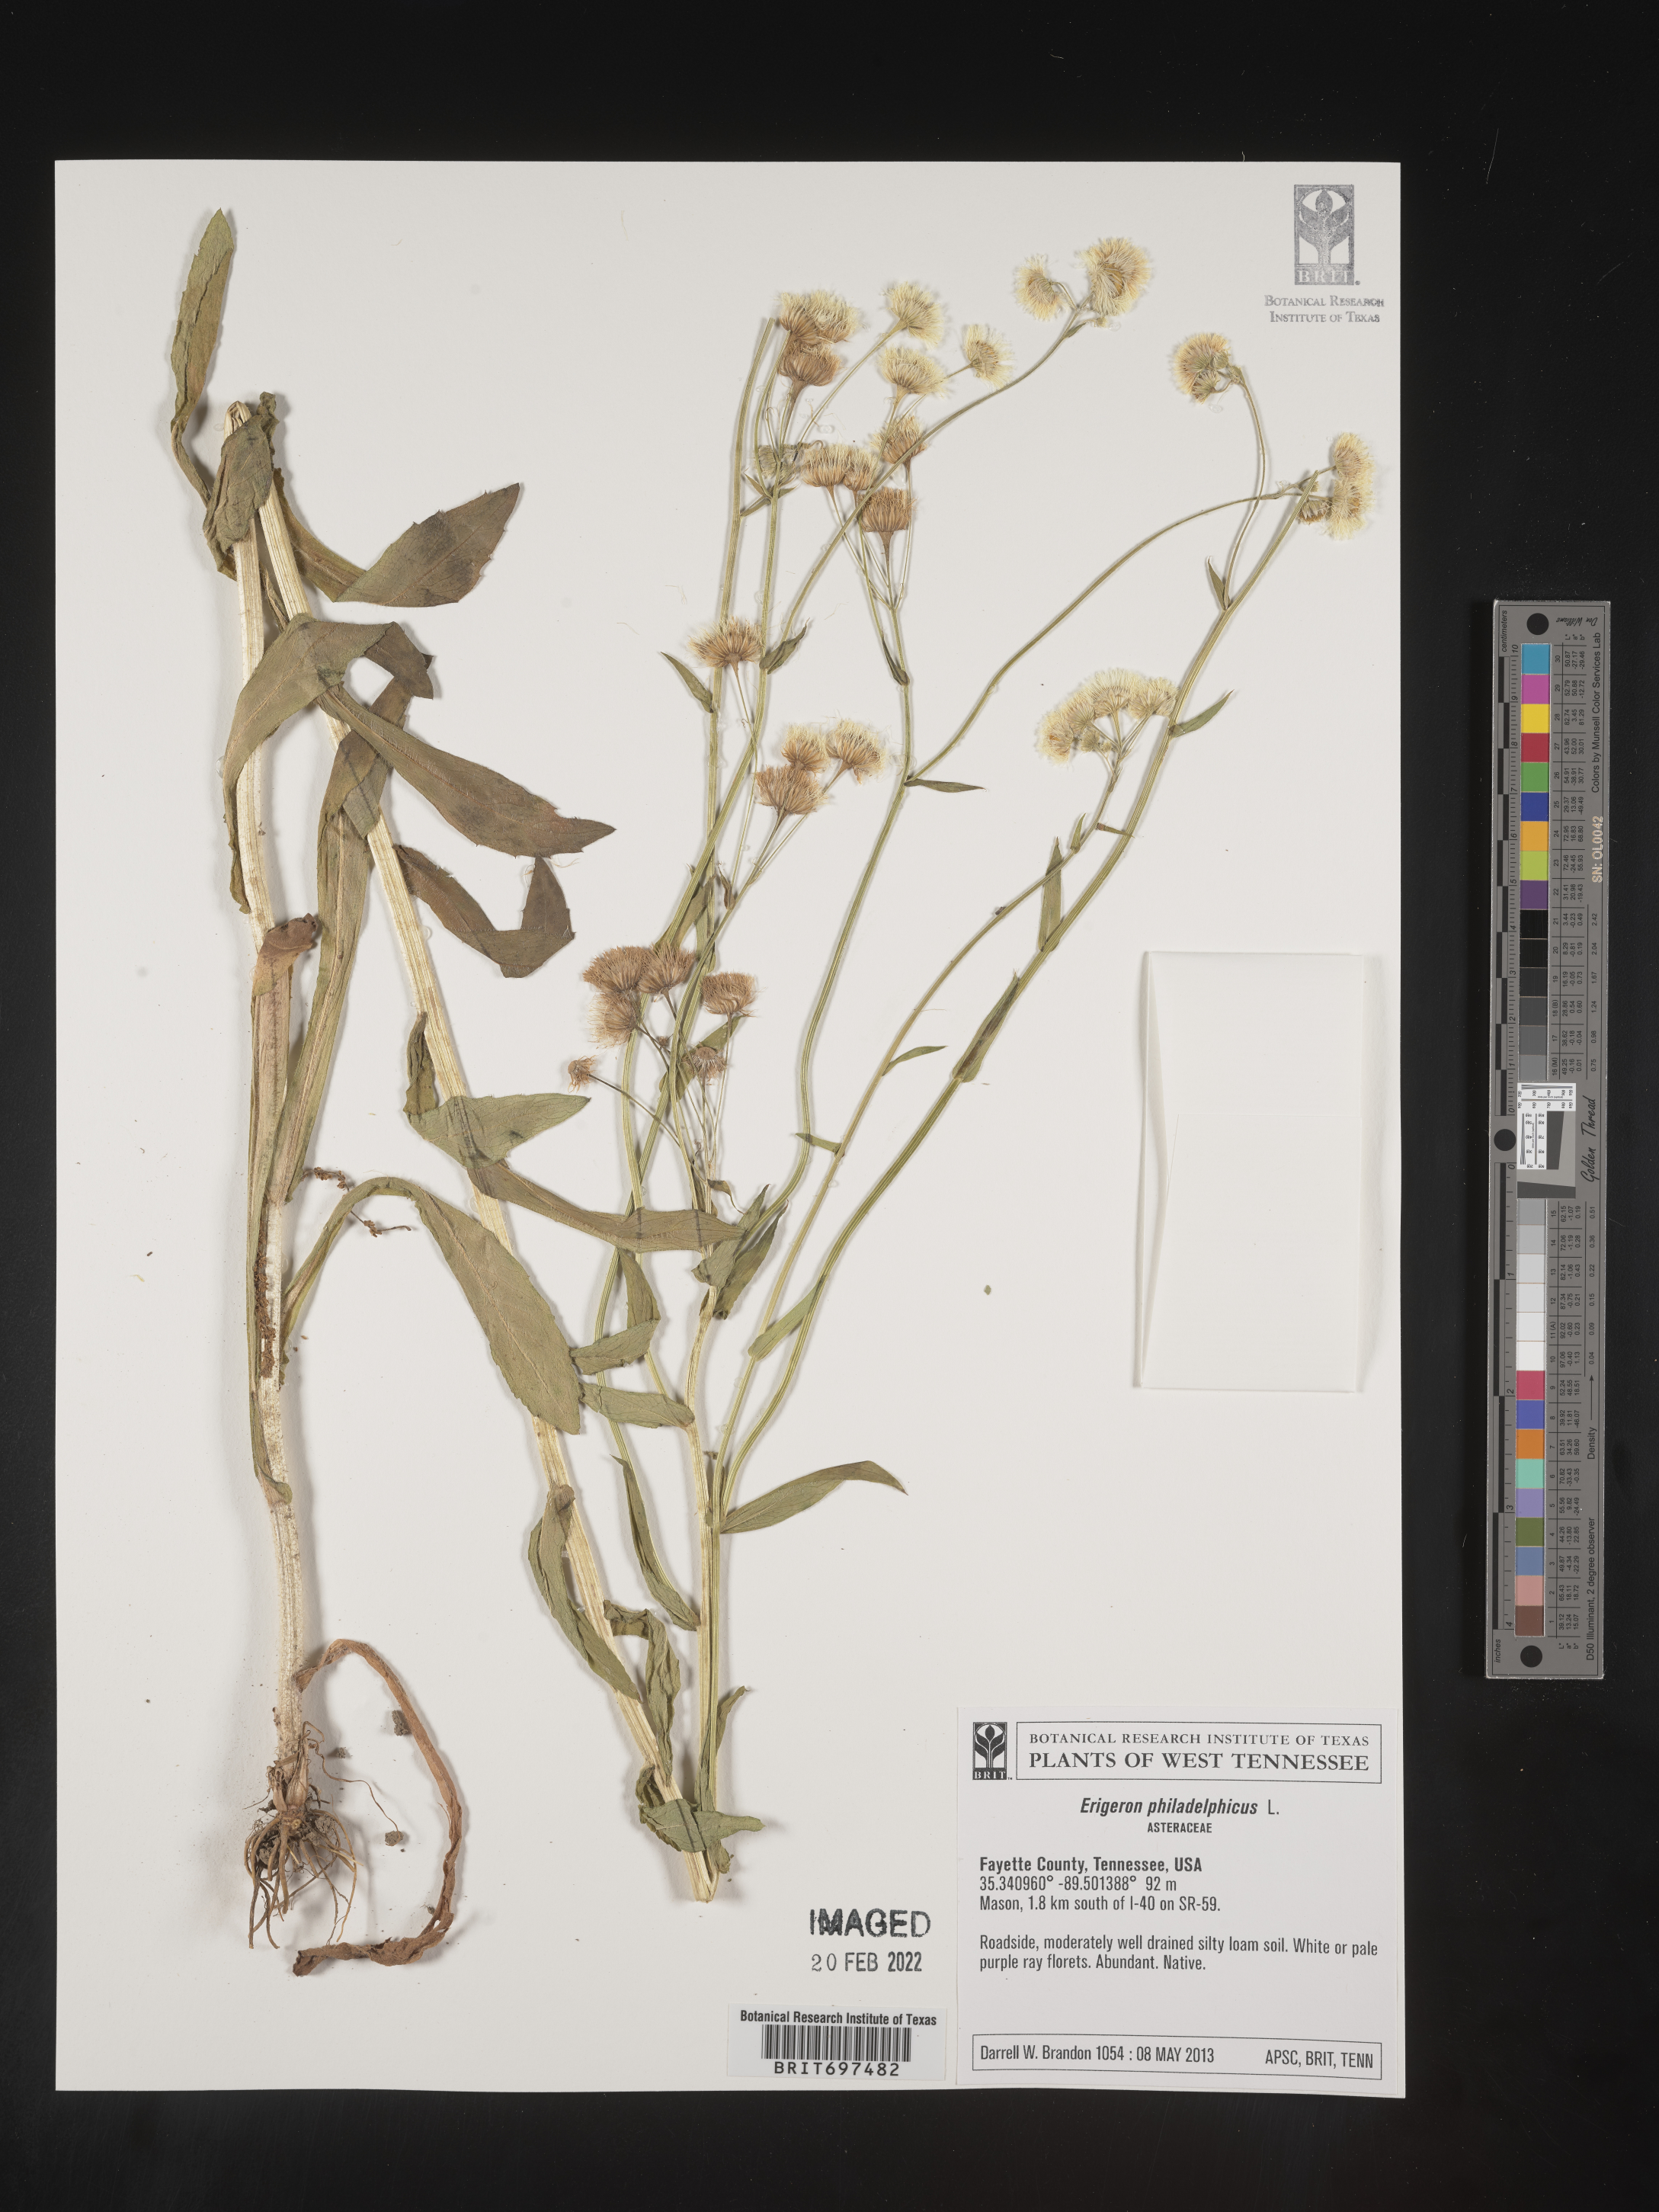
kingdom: Plantae
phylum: Tracheophyta
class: Magnoliopsida
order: Asterales
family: Asteraceae
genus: Erigeron
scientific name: Erigeron philadelphicus
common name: Robin's-plantain
